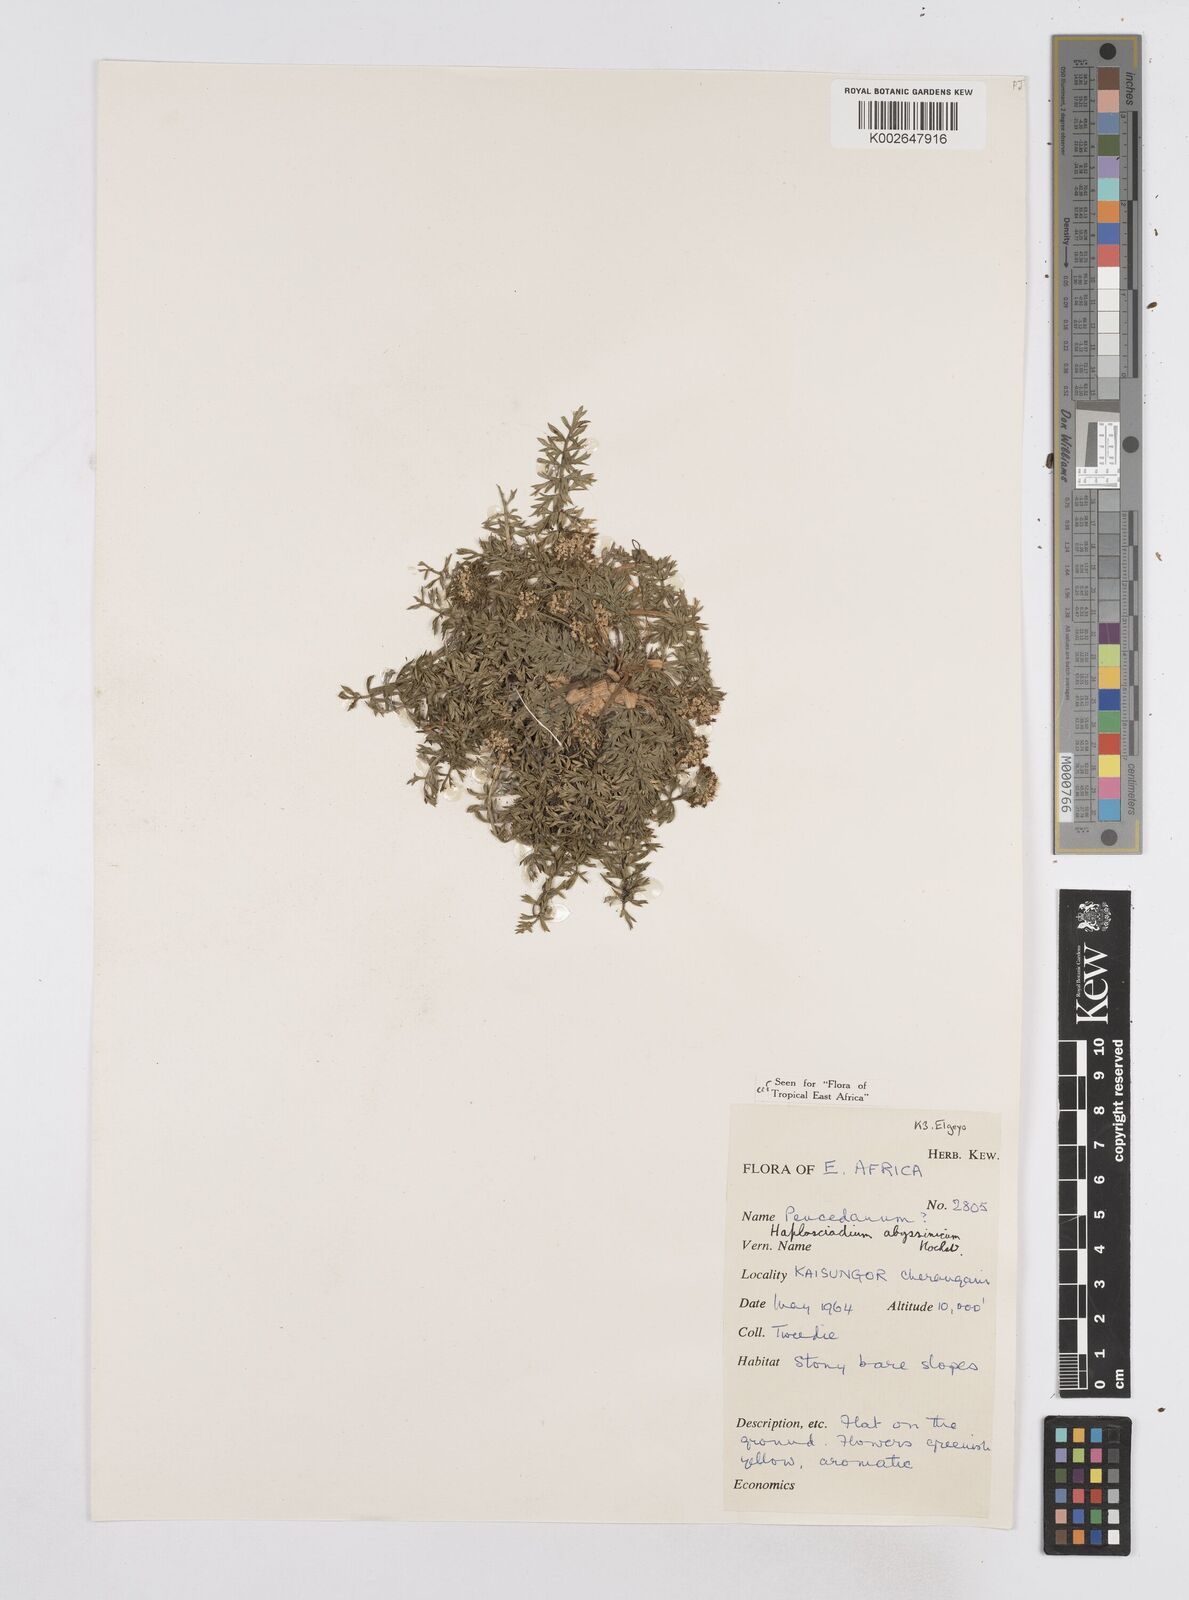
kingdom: Plantae
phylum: Tracheophyta
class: Magnoliopsida
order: Apiales
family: Apiaceae
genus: Haplosciadium
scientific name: Haplosciadium abyssinicum
